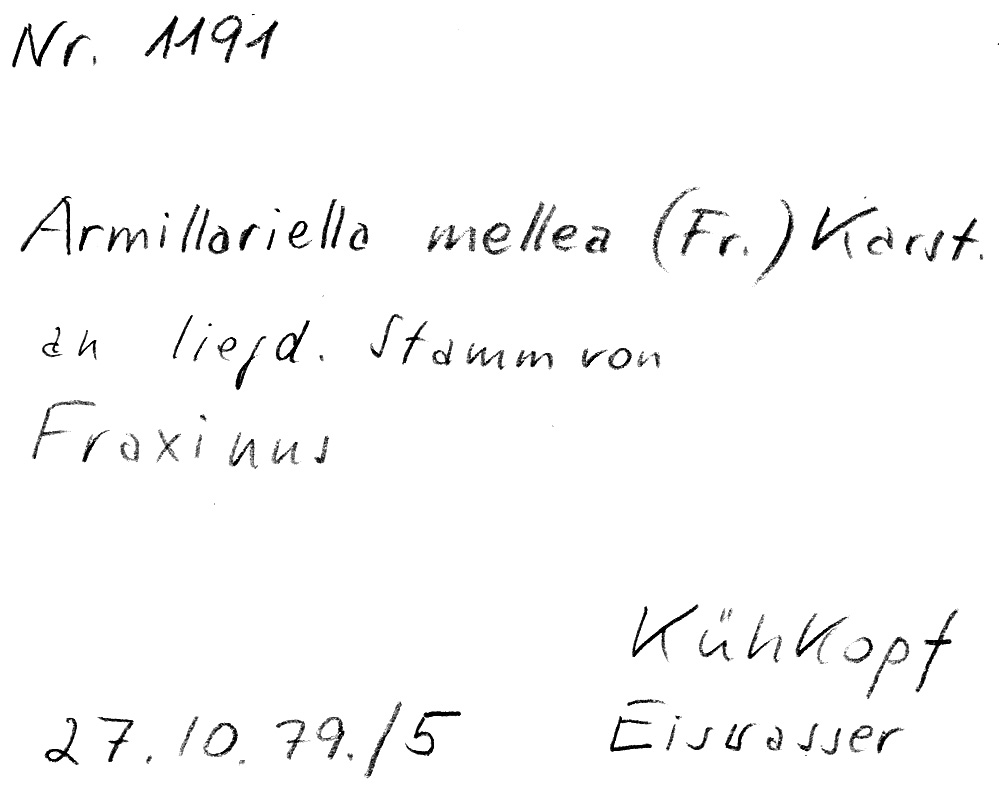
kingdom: Plantae
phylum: Tracheophyta
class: Magnoliopsida
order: Lamiales
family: Oleaceae
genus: Fraxinus
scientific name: Fraxinus
